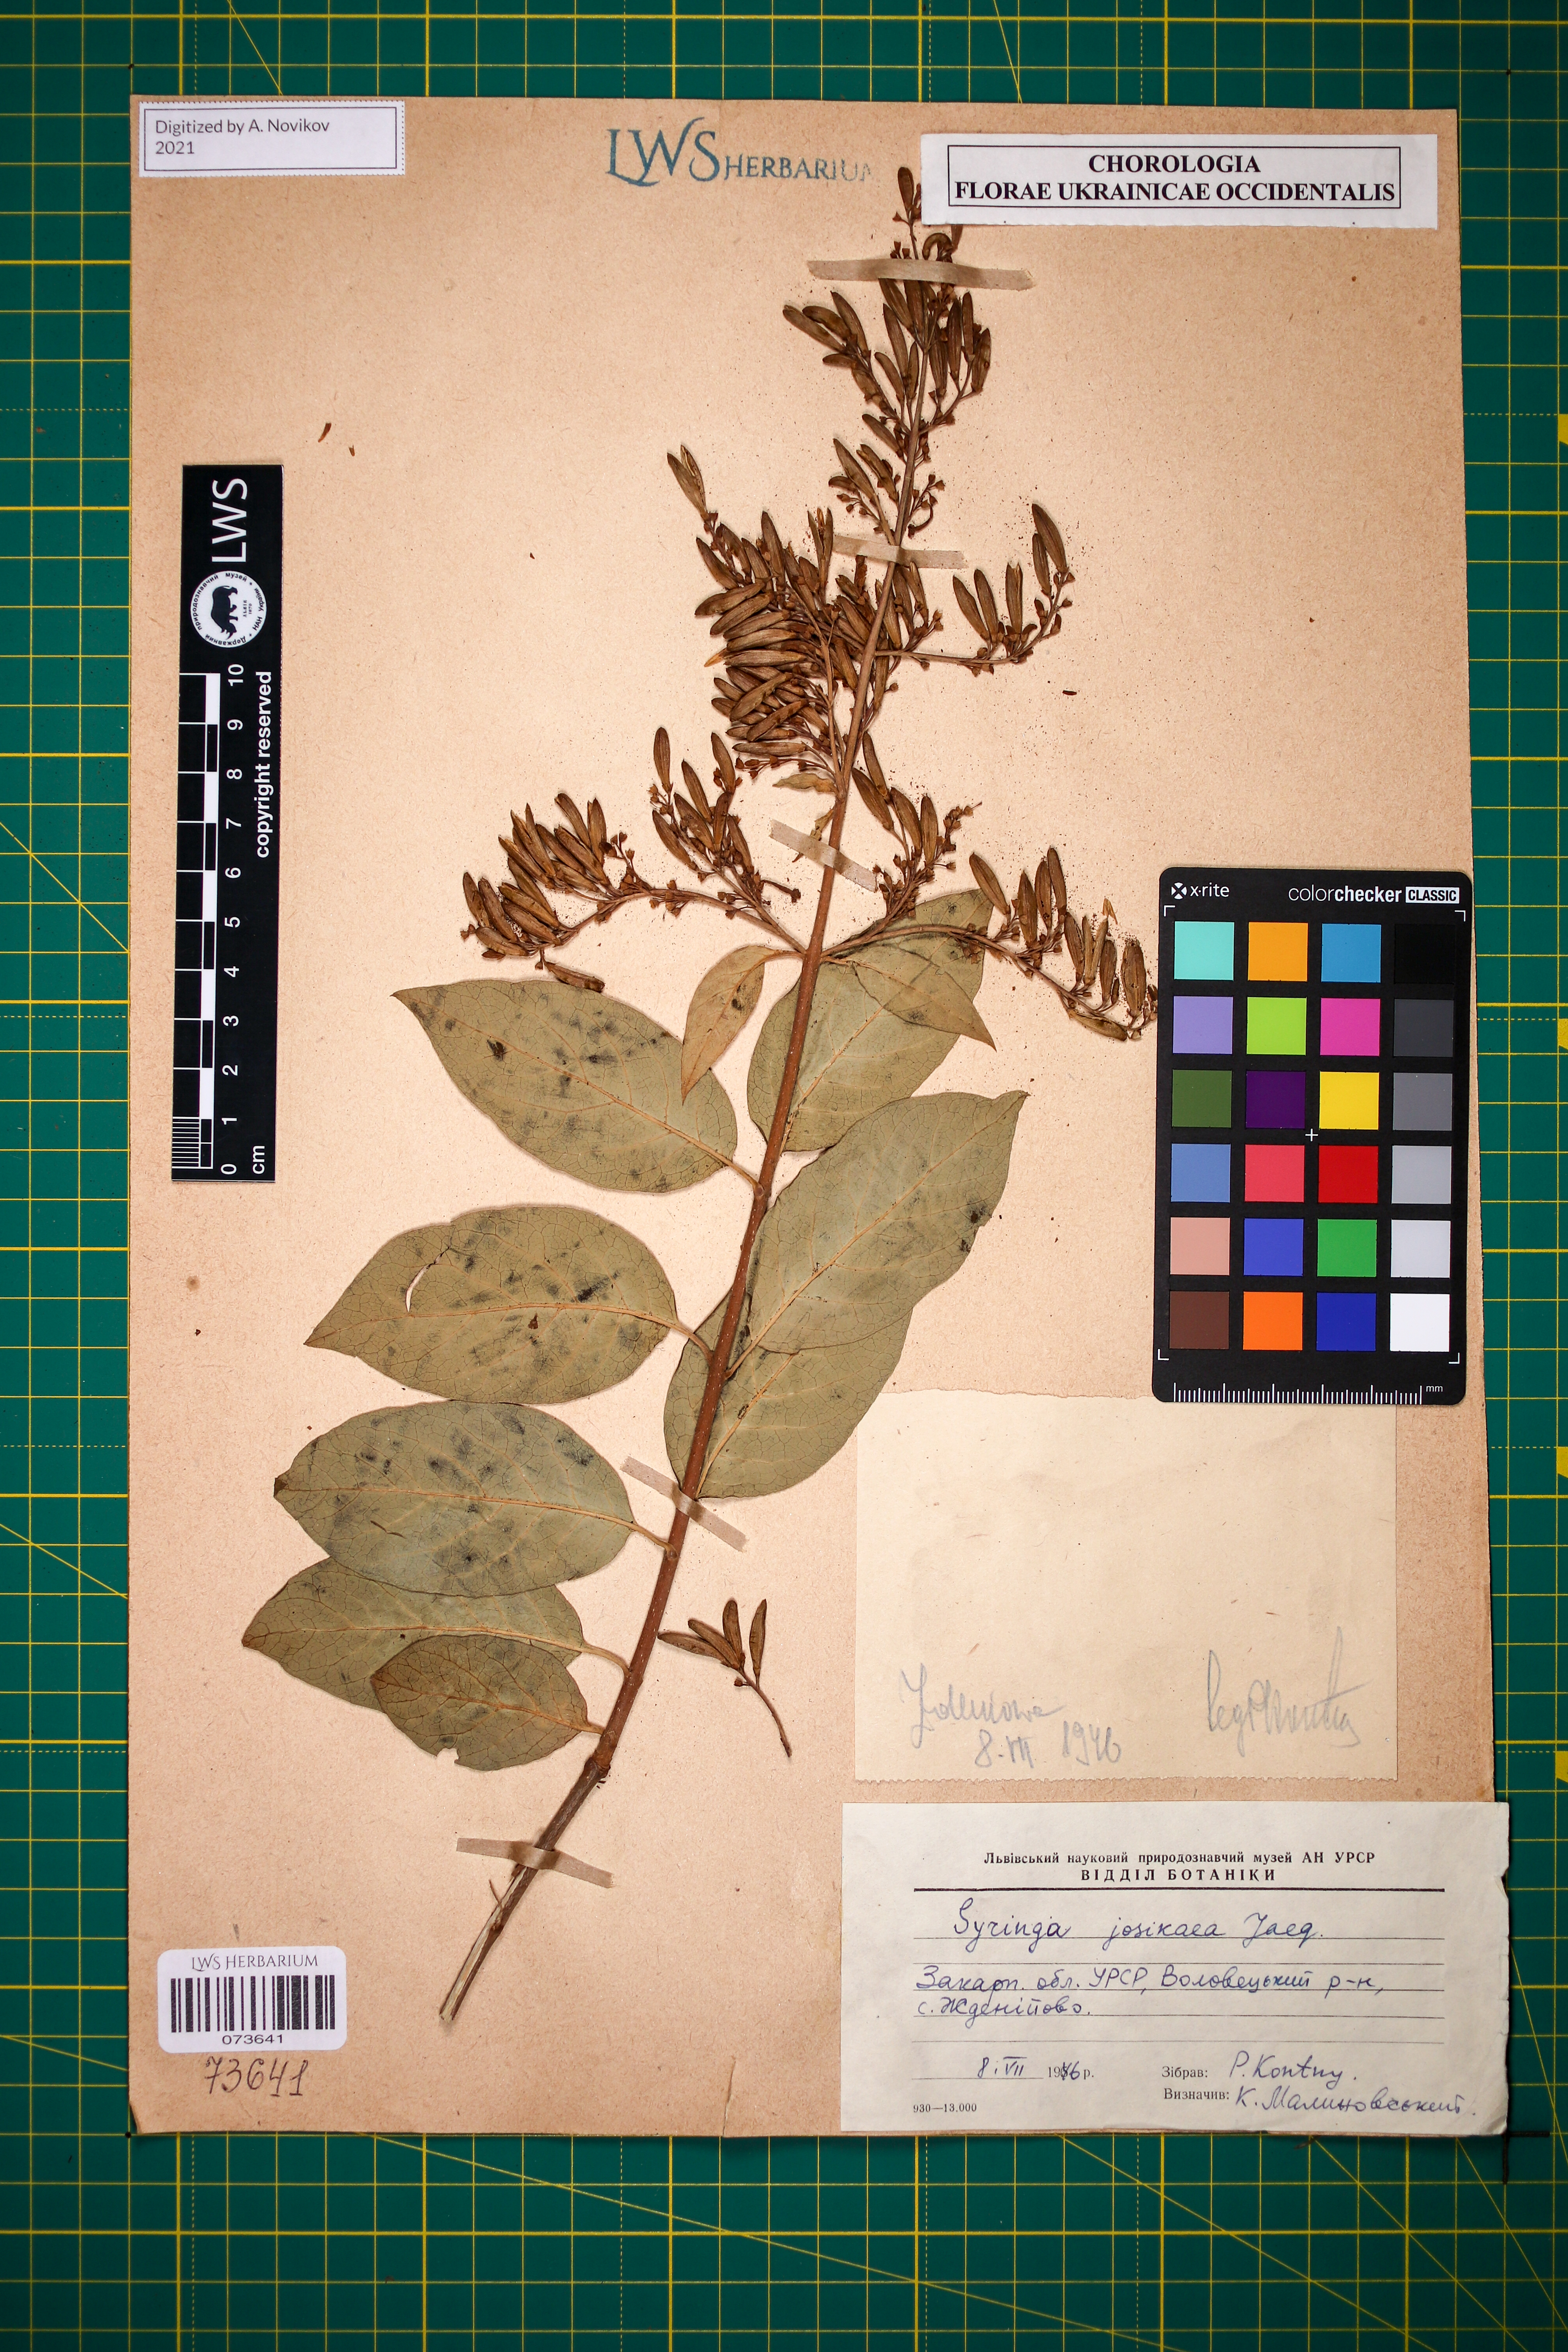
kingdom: Plantae
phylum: Tracheophyta
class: Magnoliopsida
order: Lamiales
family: Oleaceae
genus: Syringa
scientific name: Syringa josikaea
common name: Hungarian lilac
